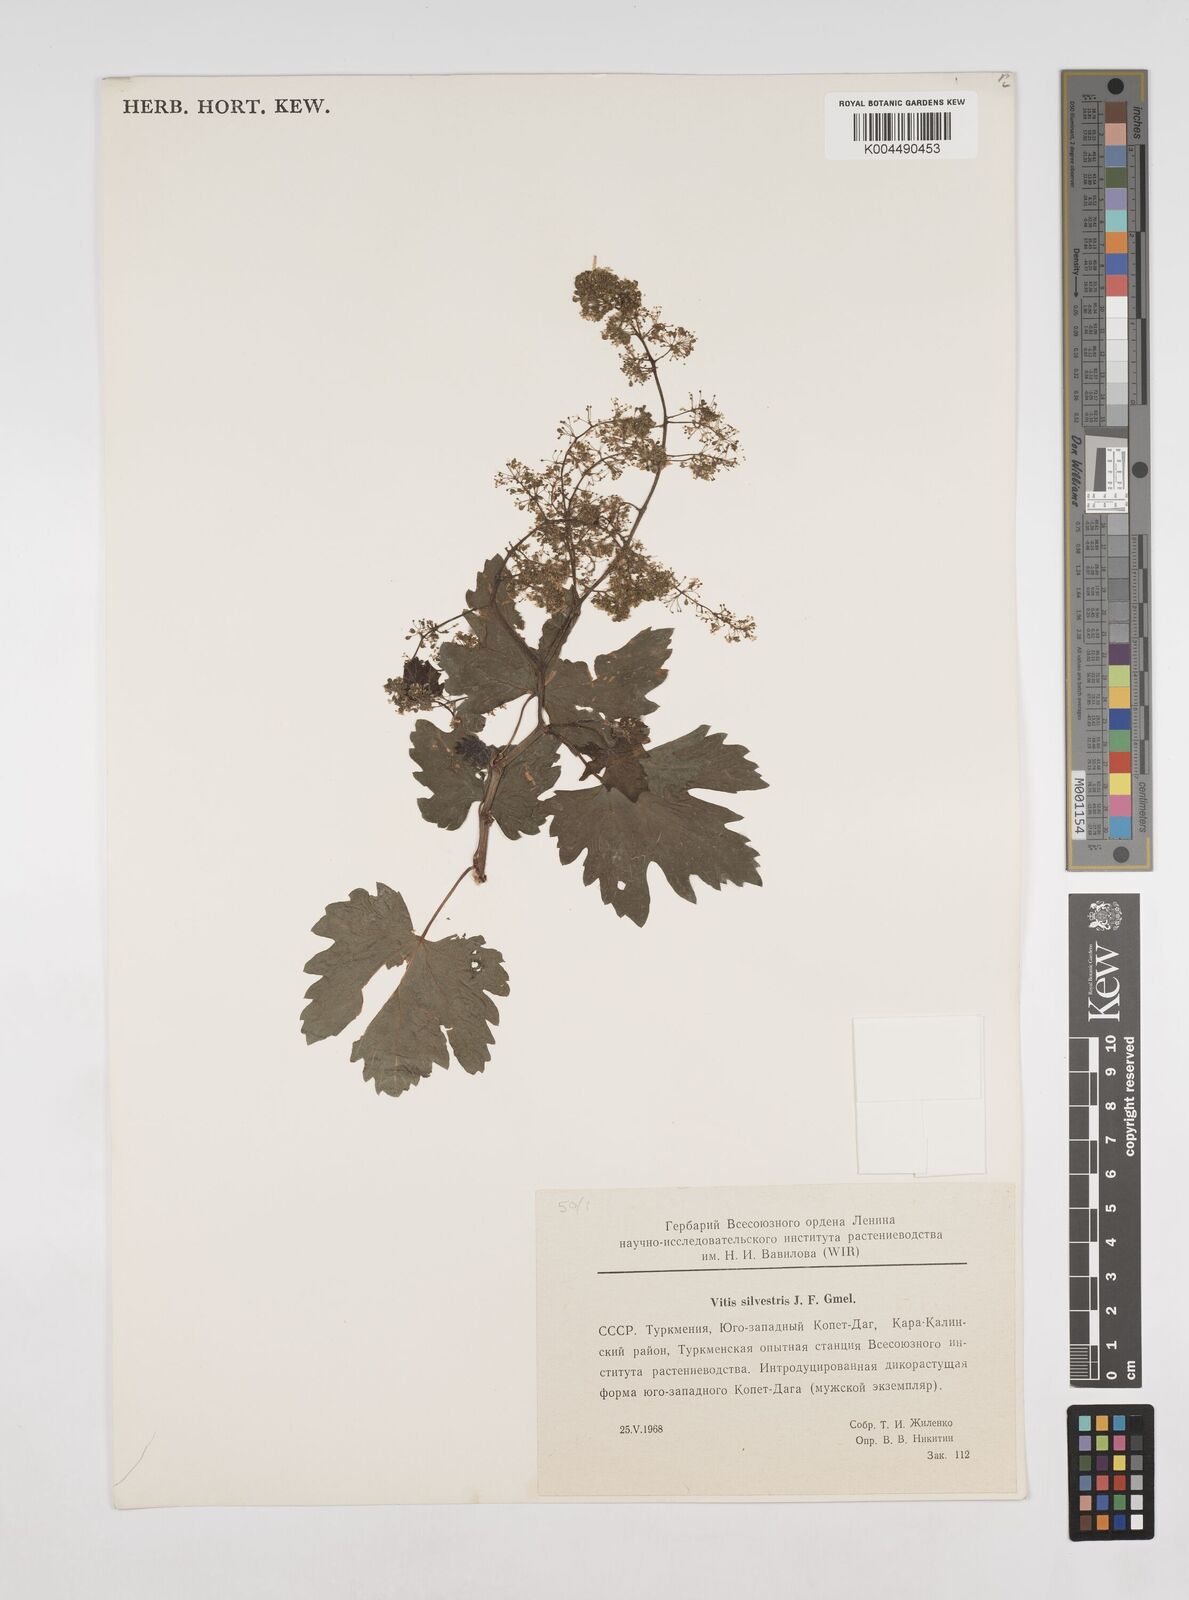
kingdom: Plantae
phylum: Tracheophyta
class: Magnoliopsida
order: Vitales
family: Vitaceae
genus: Vitis
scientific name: Vitis
